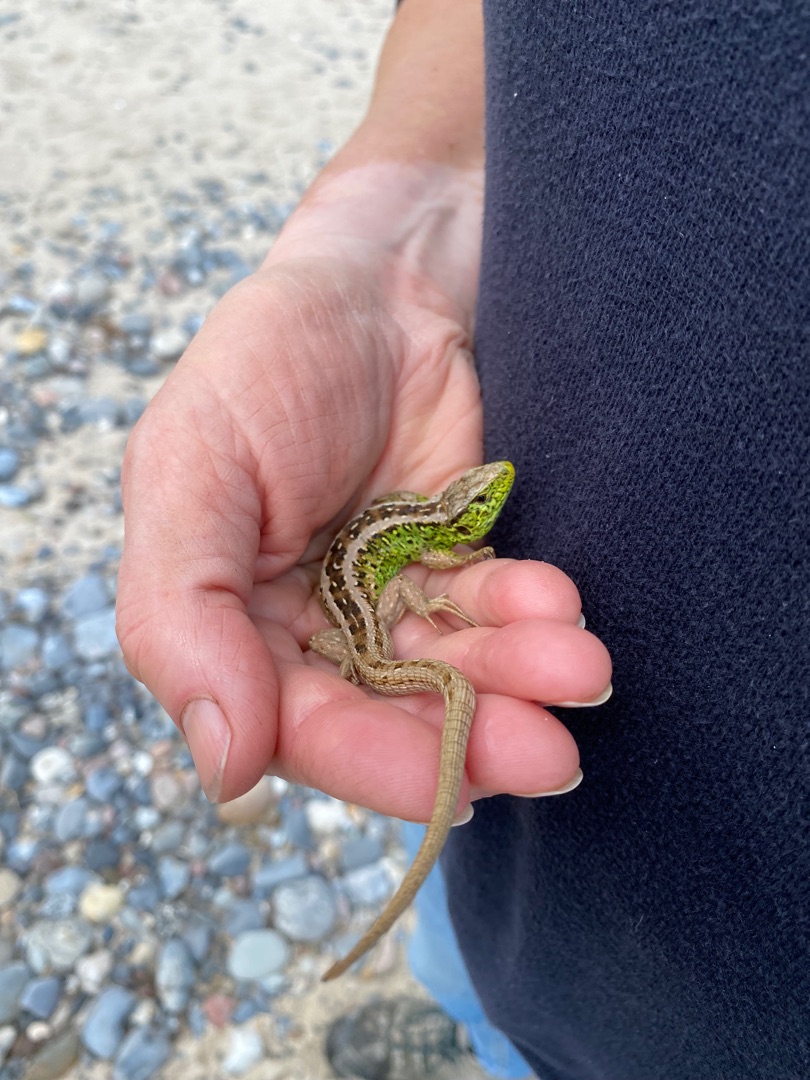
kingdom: Animalia
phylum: Chordata
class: Squamata
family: Lacertidae
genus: Lacerta
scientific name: Lacerta agilis
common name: Markfirben
